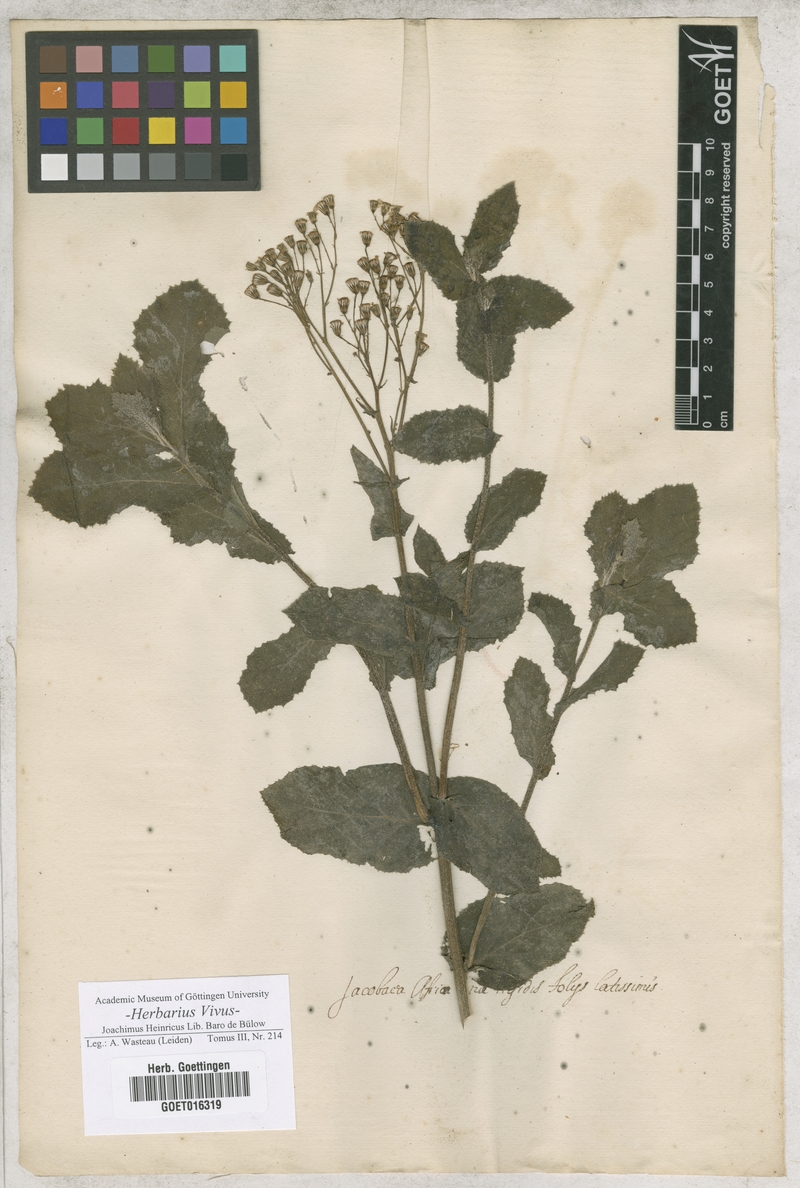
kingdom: Plantae
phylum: Tracheophyta
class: Magnoliopsida
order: Asterales
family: Asteraceae
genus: Jacobaea
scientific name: Jacobaea
